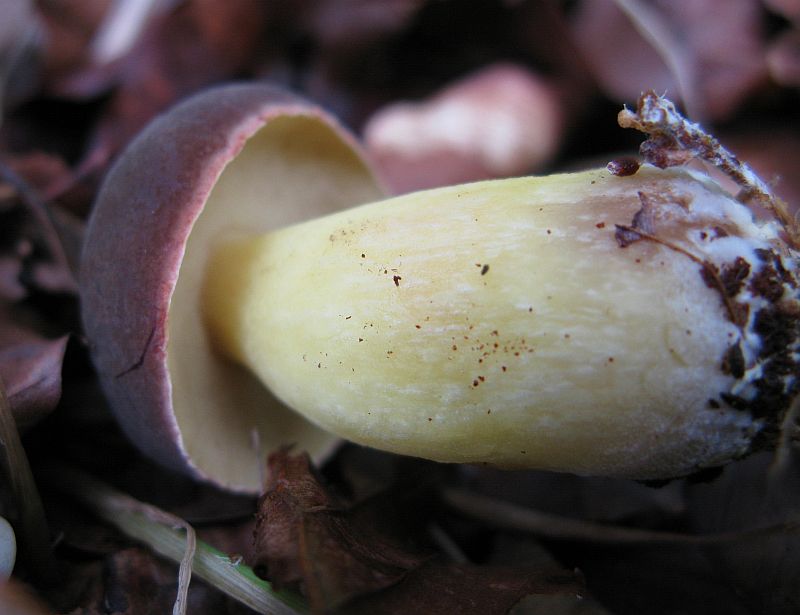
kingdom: Fungi
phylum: Basidiomycota
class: Agaricomycetes
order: Boletales
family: Boletaceae
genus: Xerocomellus
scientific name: Xerocomellus pruinatus
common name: dugget rørhat
